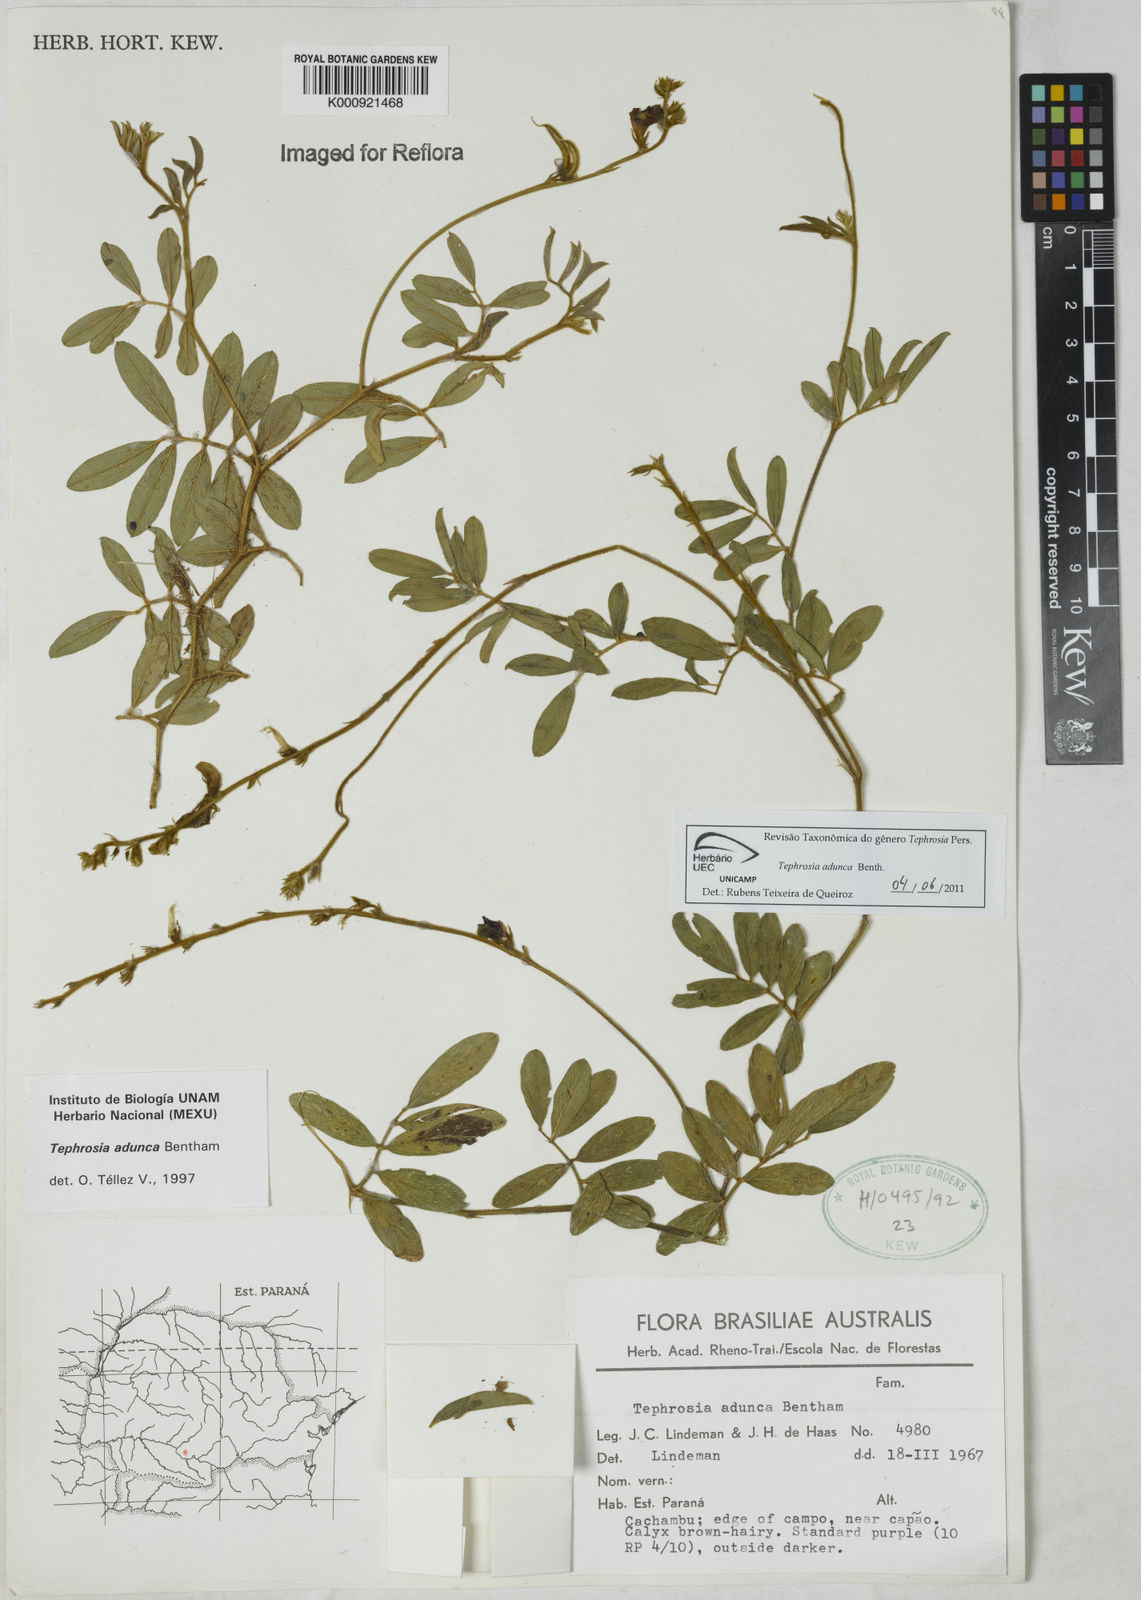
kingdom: Plantae
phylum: Tracheophyta
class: Magnoliopsida
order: Fabales
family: Fabaceae
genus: Tephrosia
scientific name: Tephrosia adunca
